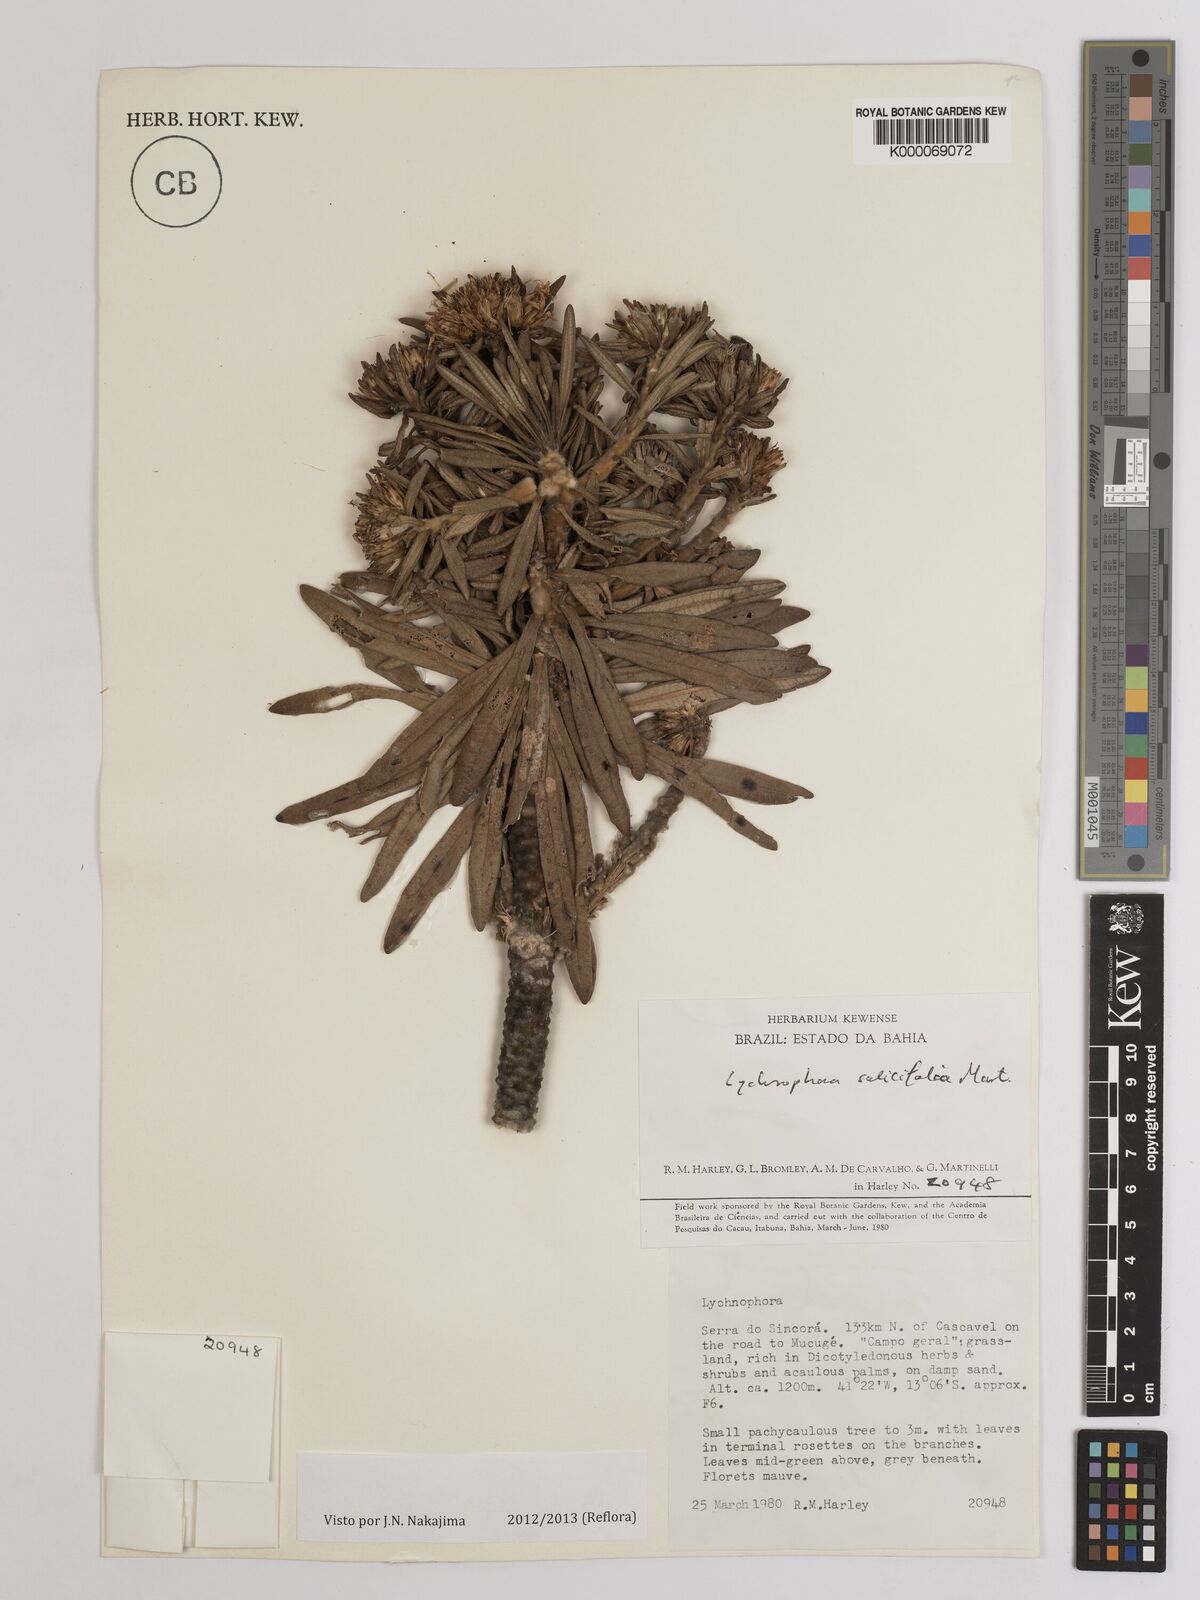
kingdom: Plantae
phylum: Tracheophyta
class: Magnoliopsida
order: Asterales
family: Asteraceae
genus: Lychnophora
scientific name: Lychnophora salicifolia
